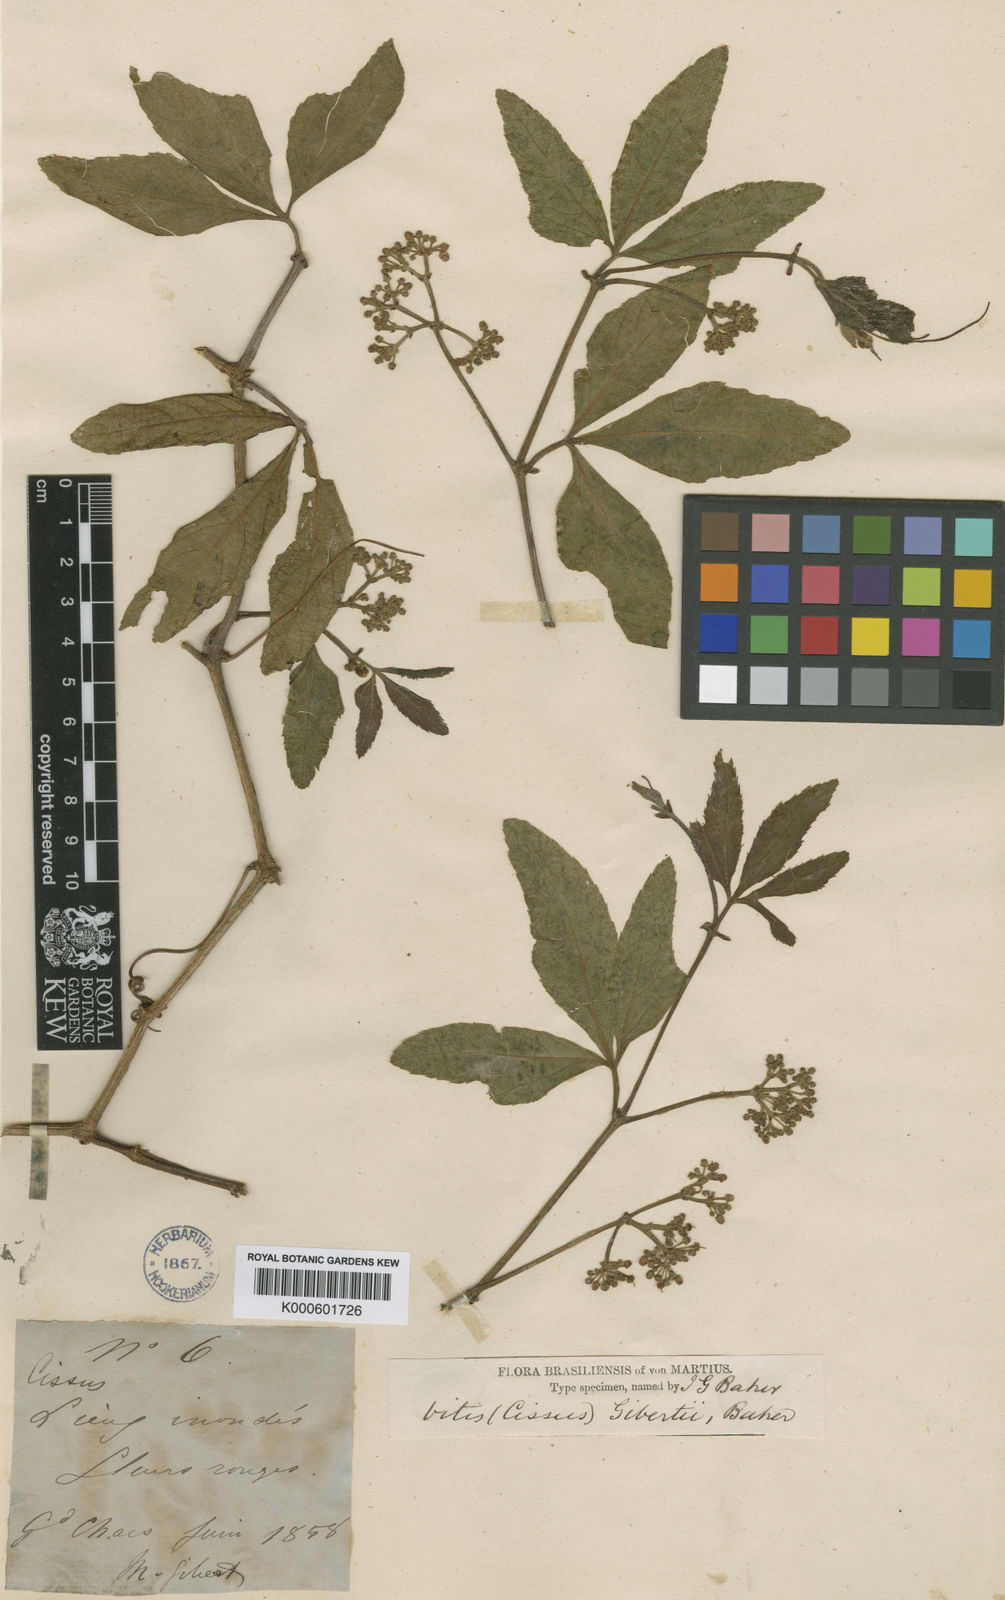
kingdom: Plantae
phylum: Tracheophyta
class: Magnoliopsida
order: Vitales
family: Vitaceae
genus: Cissus
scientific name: Cissus palmata
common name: Grape
